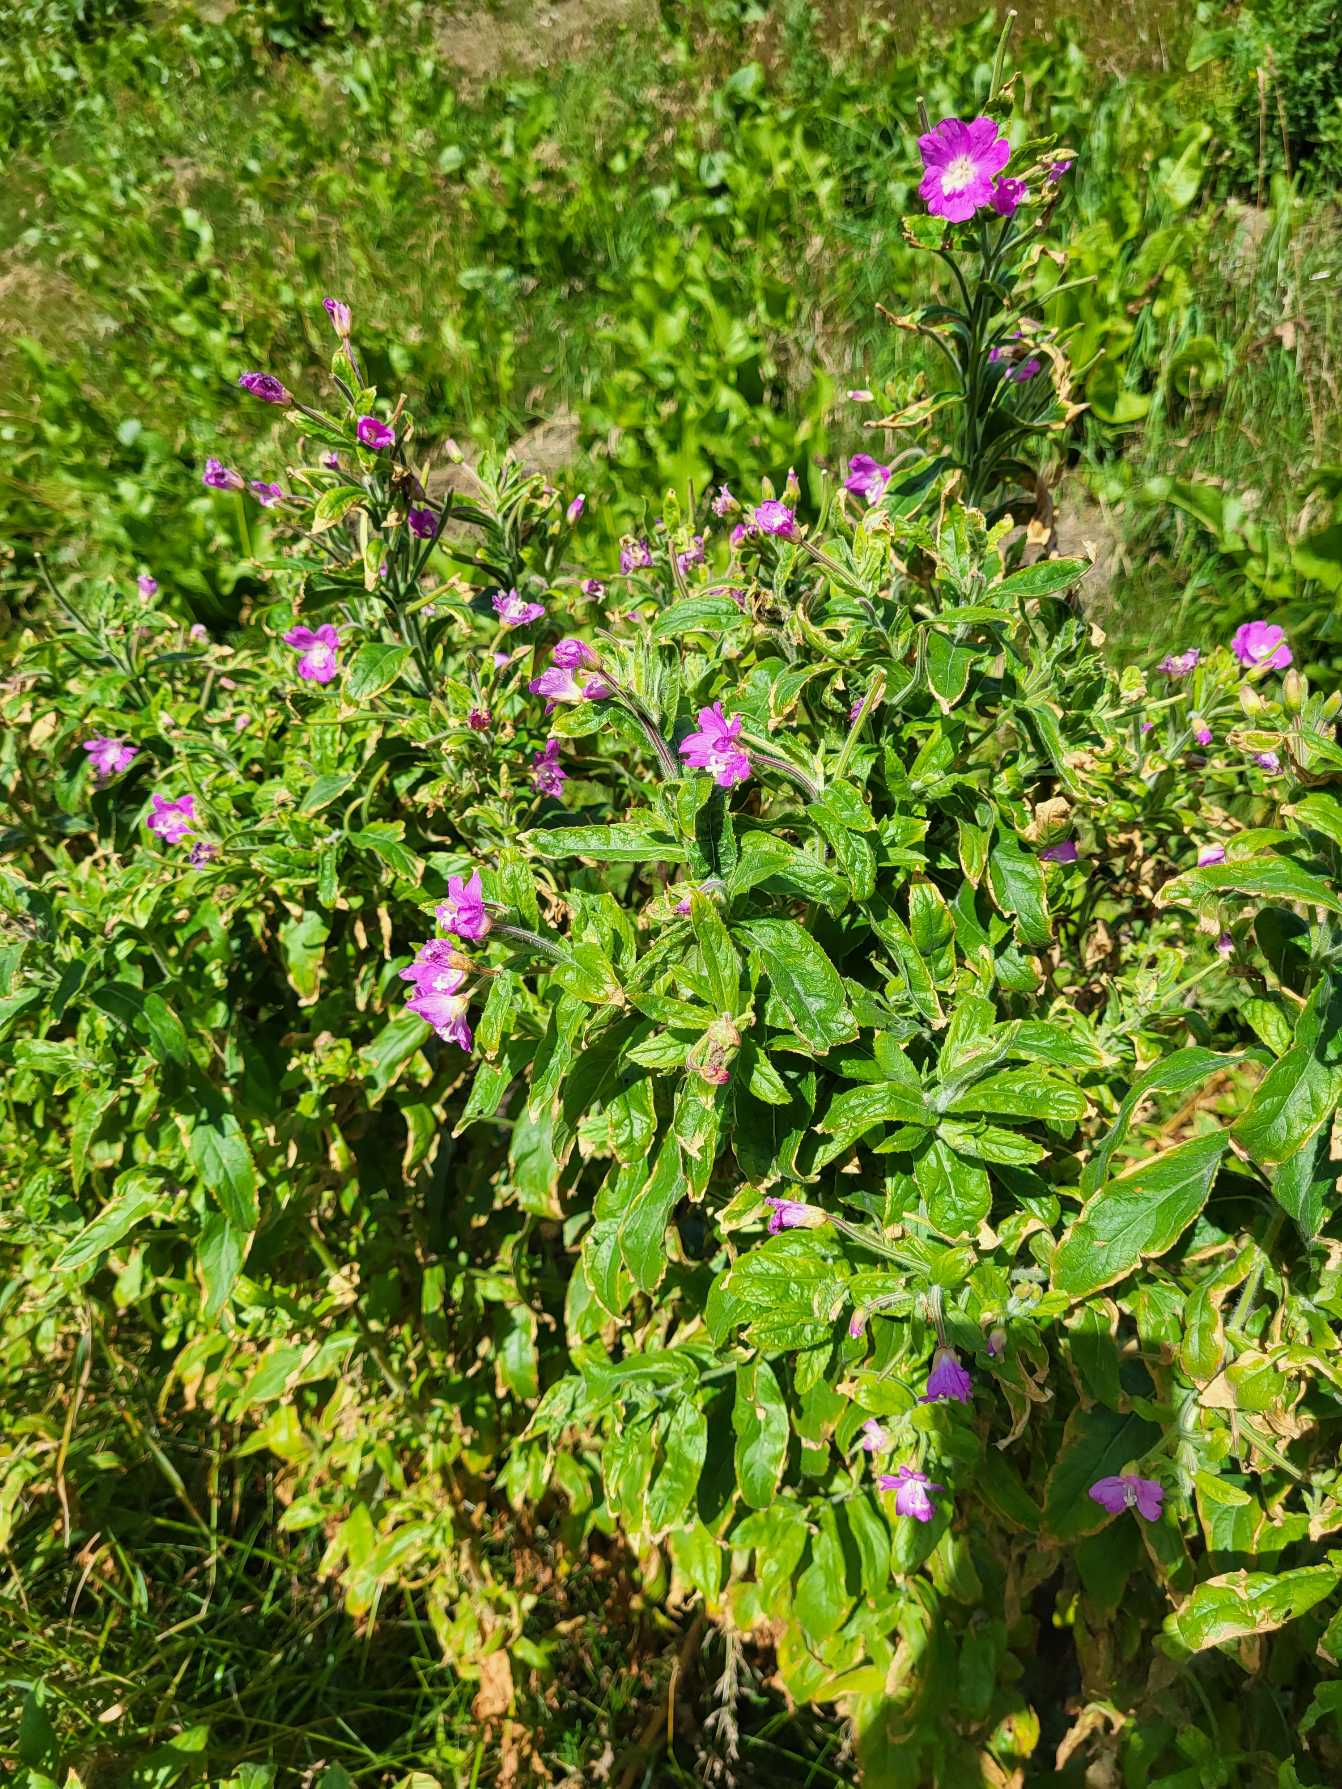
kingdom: Plantae
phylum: Tracheophyta
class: Magnoliopsida
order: Myrtales
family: Onagraceae
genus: Epilobium
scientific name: Epilobium hirsutum
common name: Lådden dueurt
